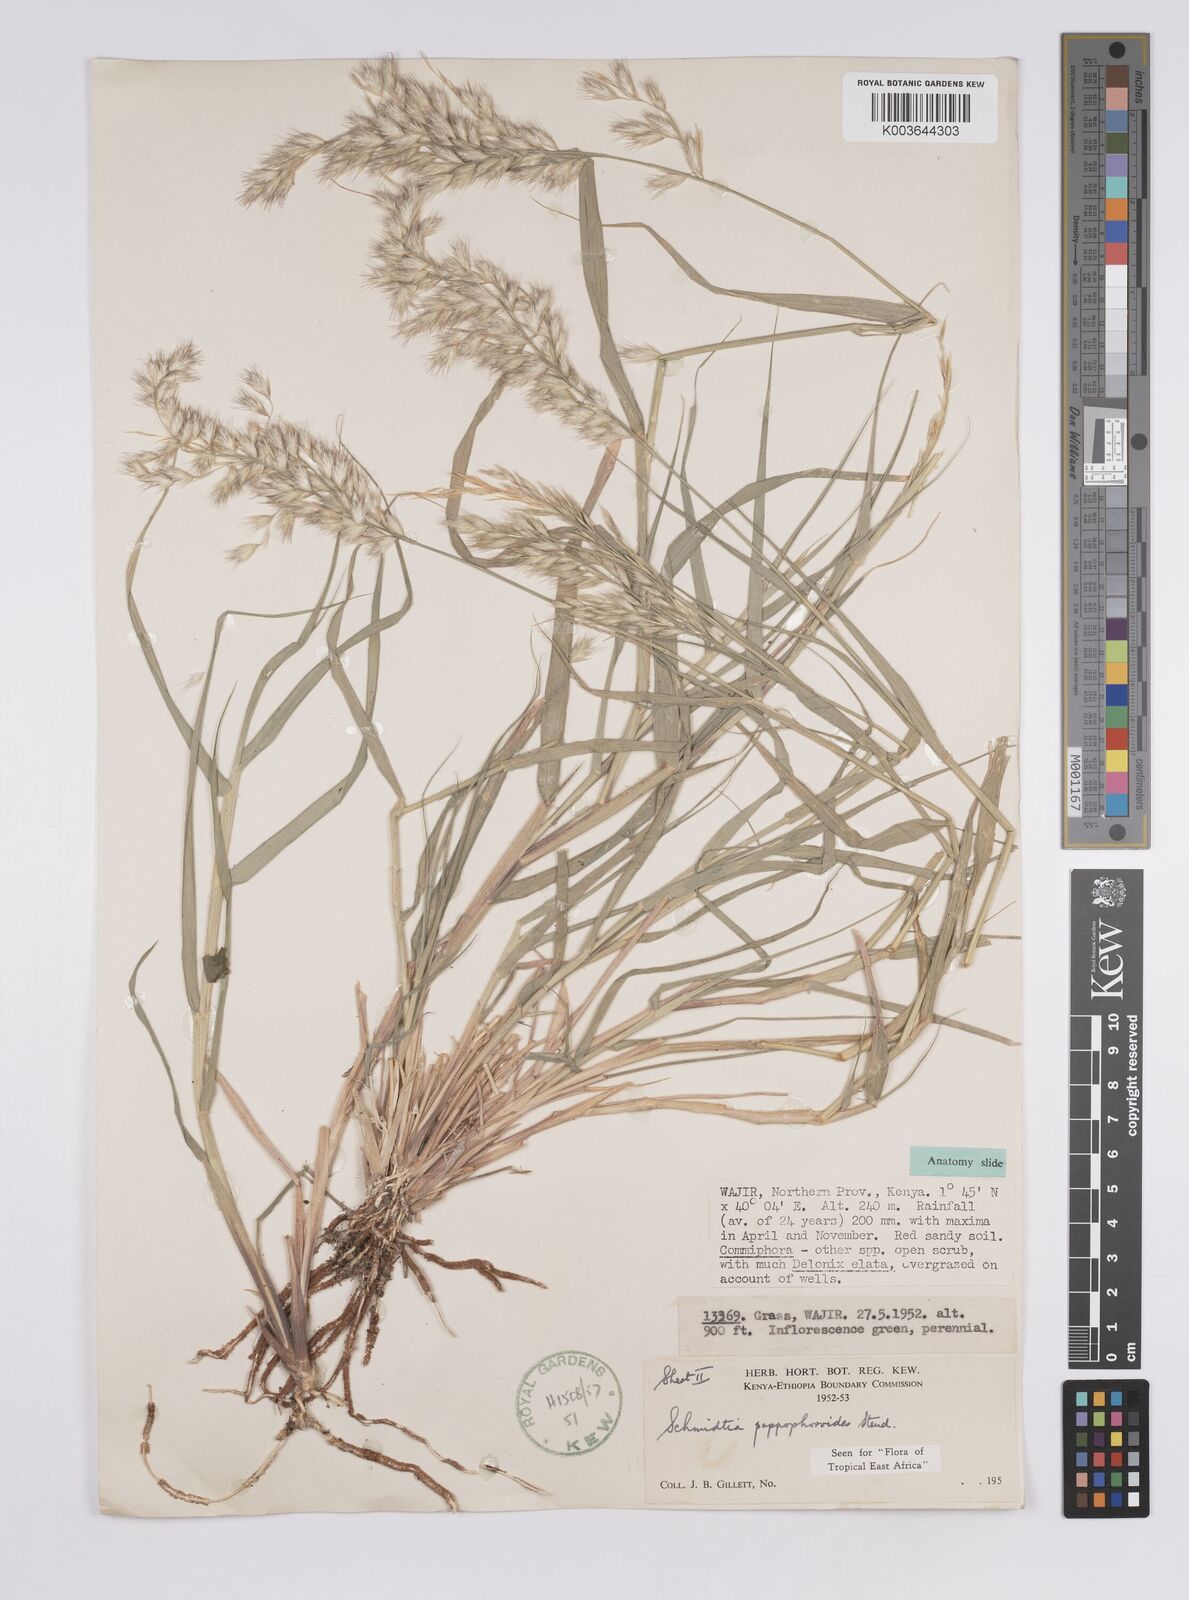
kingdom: Plantae
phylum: Tracheophyta
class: Liliopsida
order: Poales
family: Poaceae
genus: Schmidtia
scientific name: Schmidtia pappophoroides
